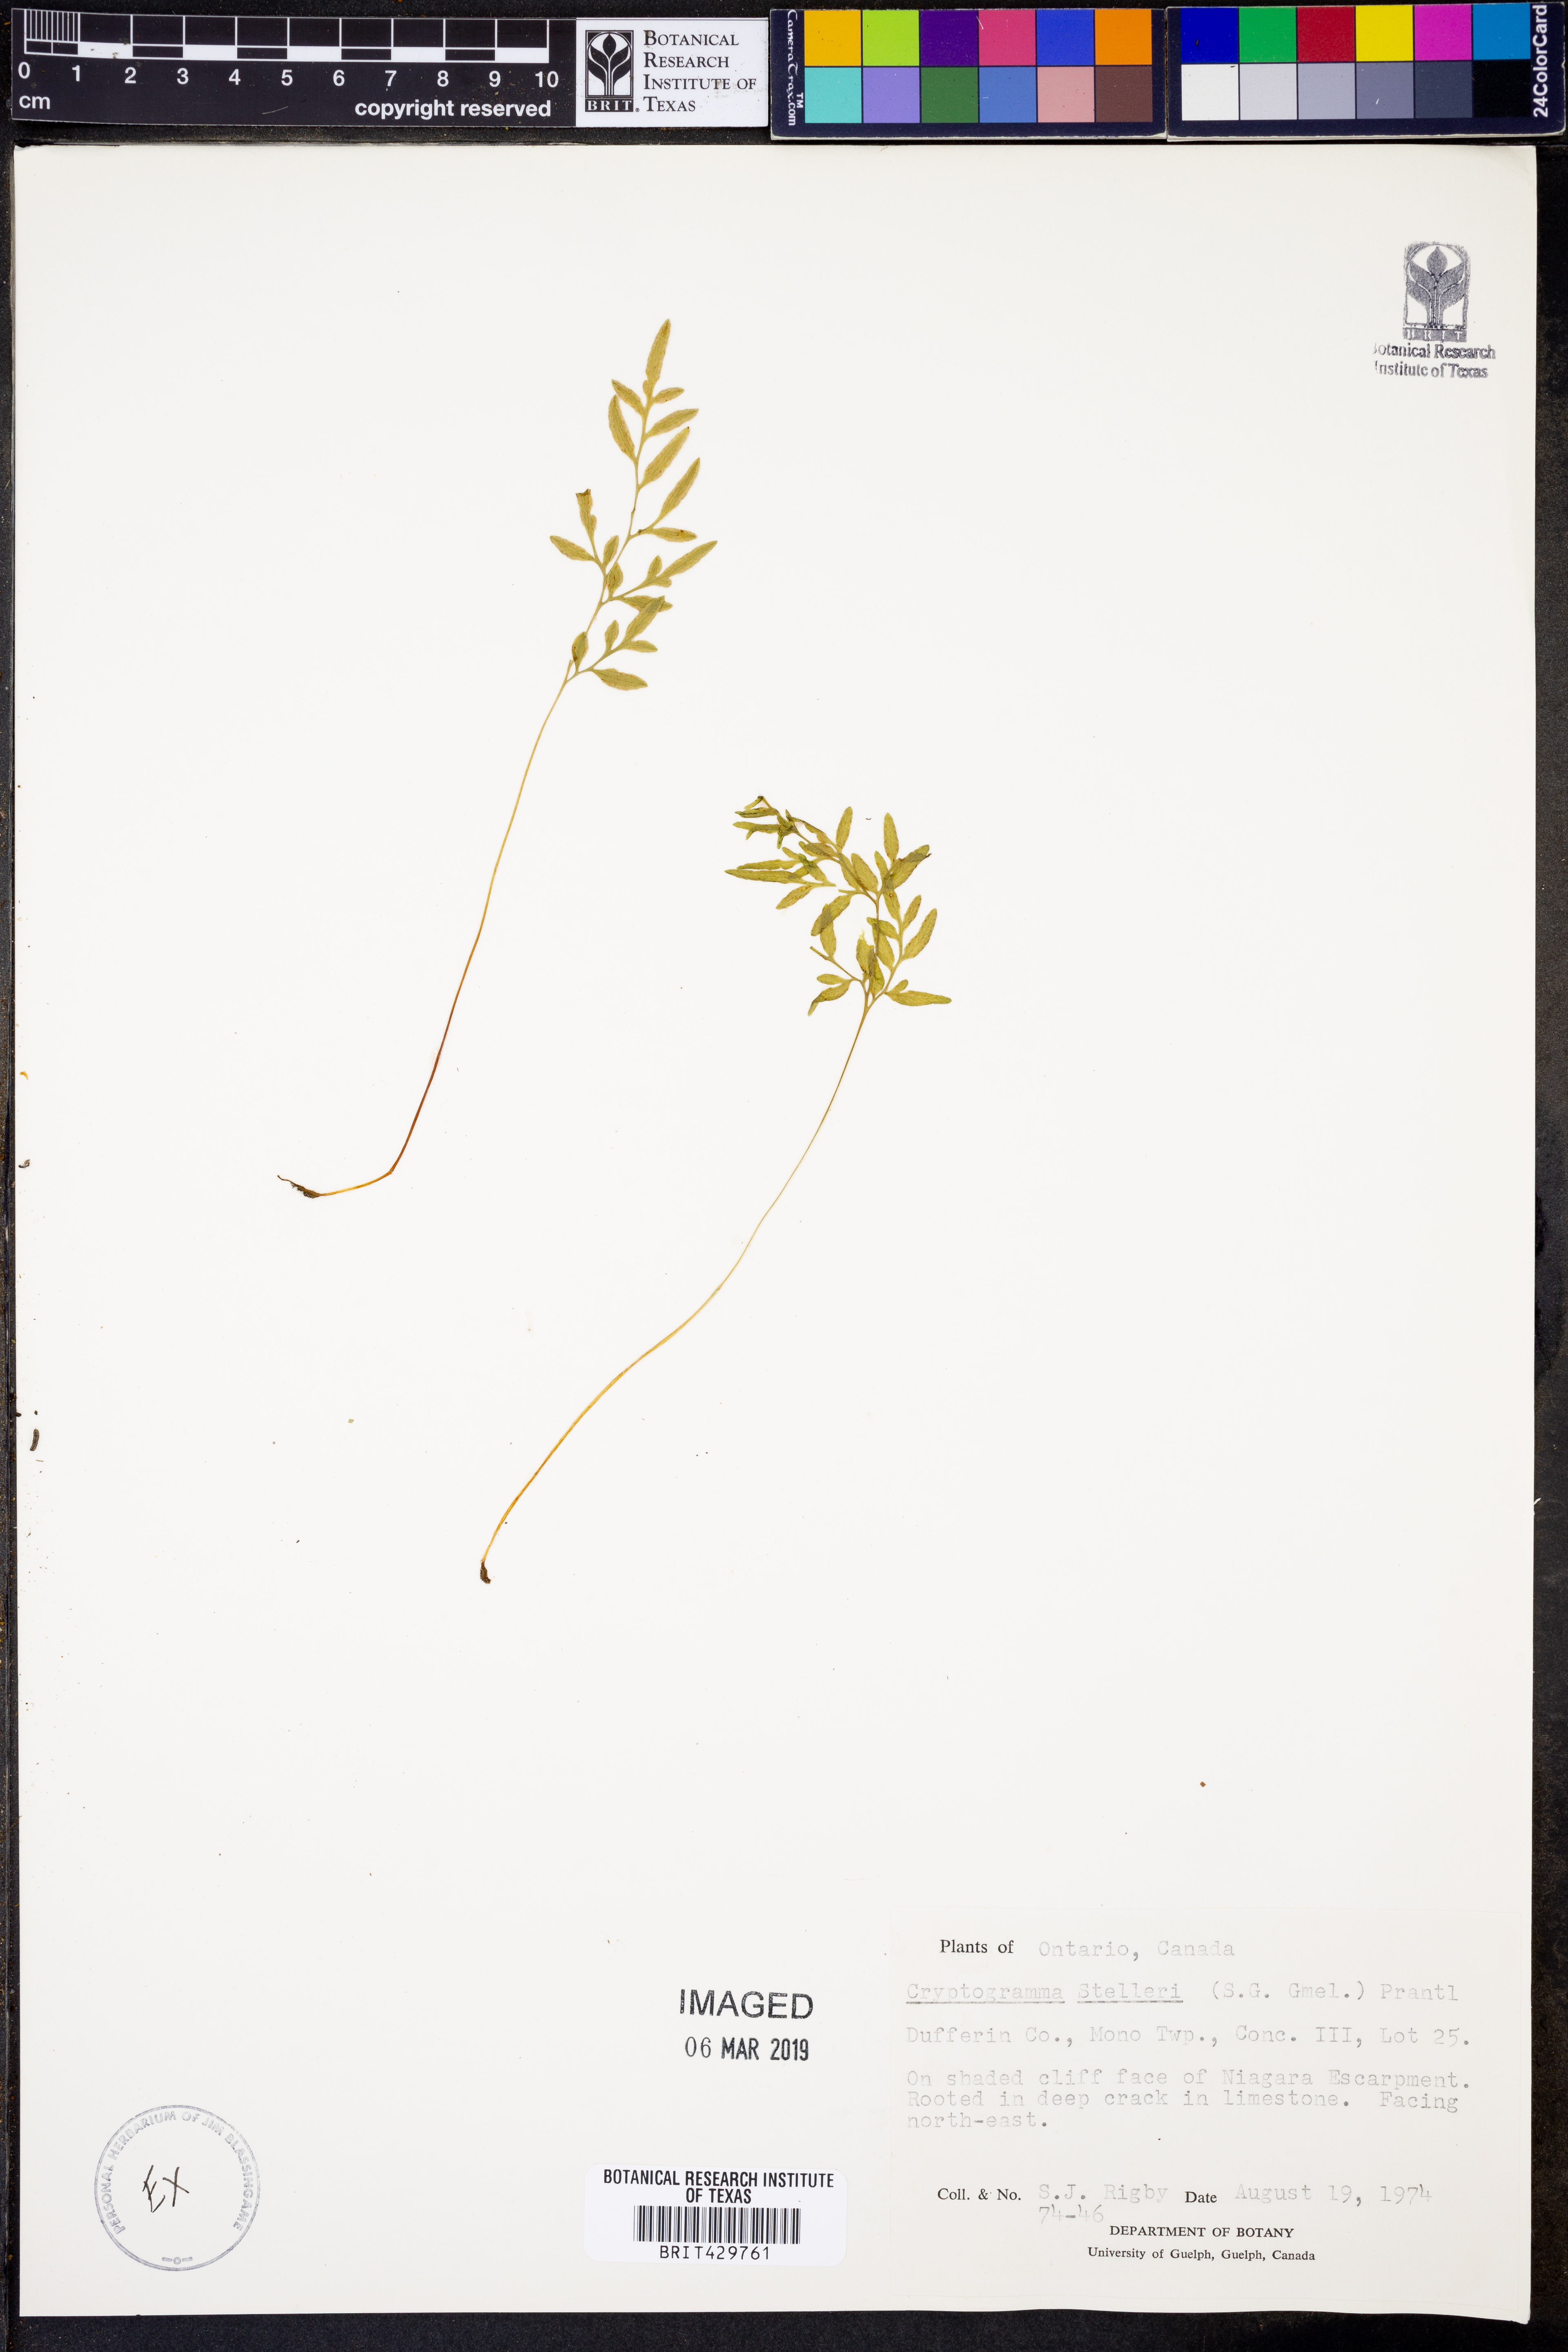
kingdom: Plantae
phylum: Tracheophyta
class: Polypodiopsida
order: Polypodiales
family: Pteridaceae
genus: Cryptogramma
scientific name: Cryptogramma stelleri
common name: Cliff-brake
